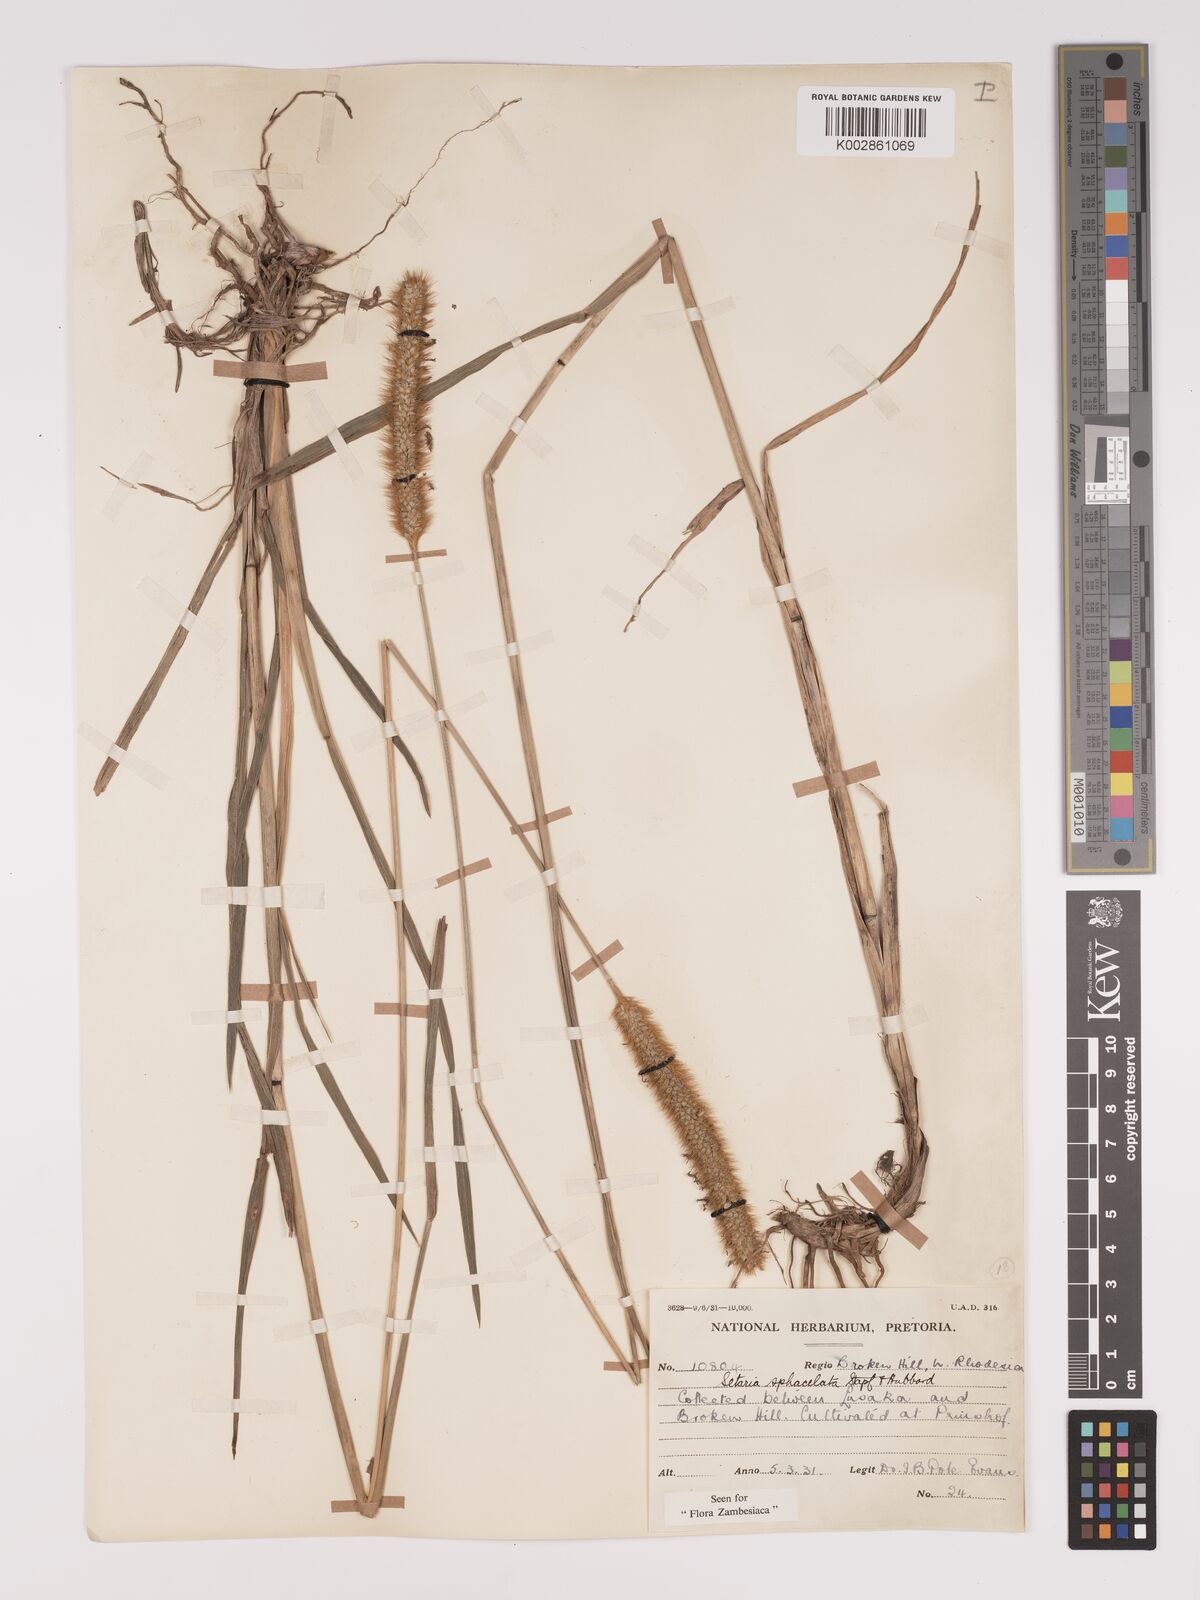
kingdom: Plantae
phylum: Tracheophyta
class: Liliopsida
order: Poales
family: Poaceae
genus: Setaria
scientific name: Setaria sphacelata
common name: African bristlegrass
